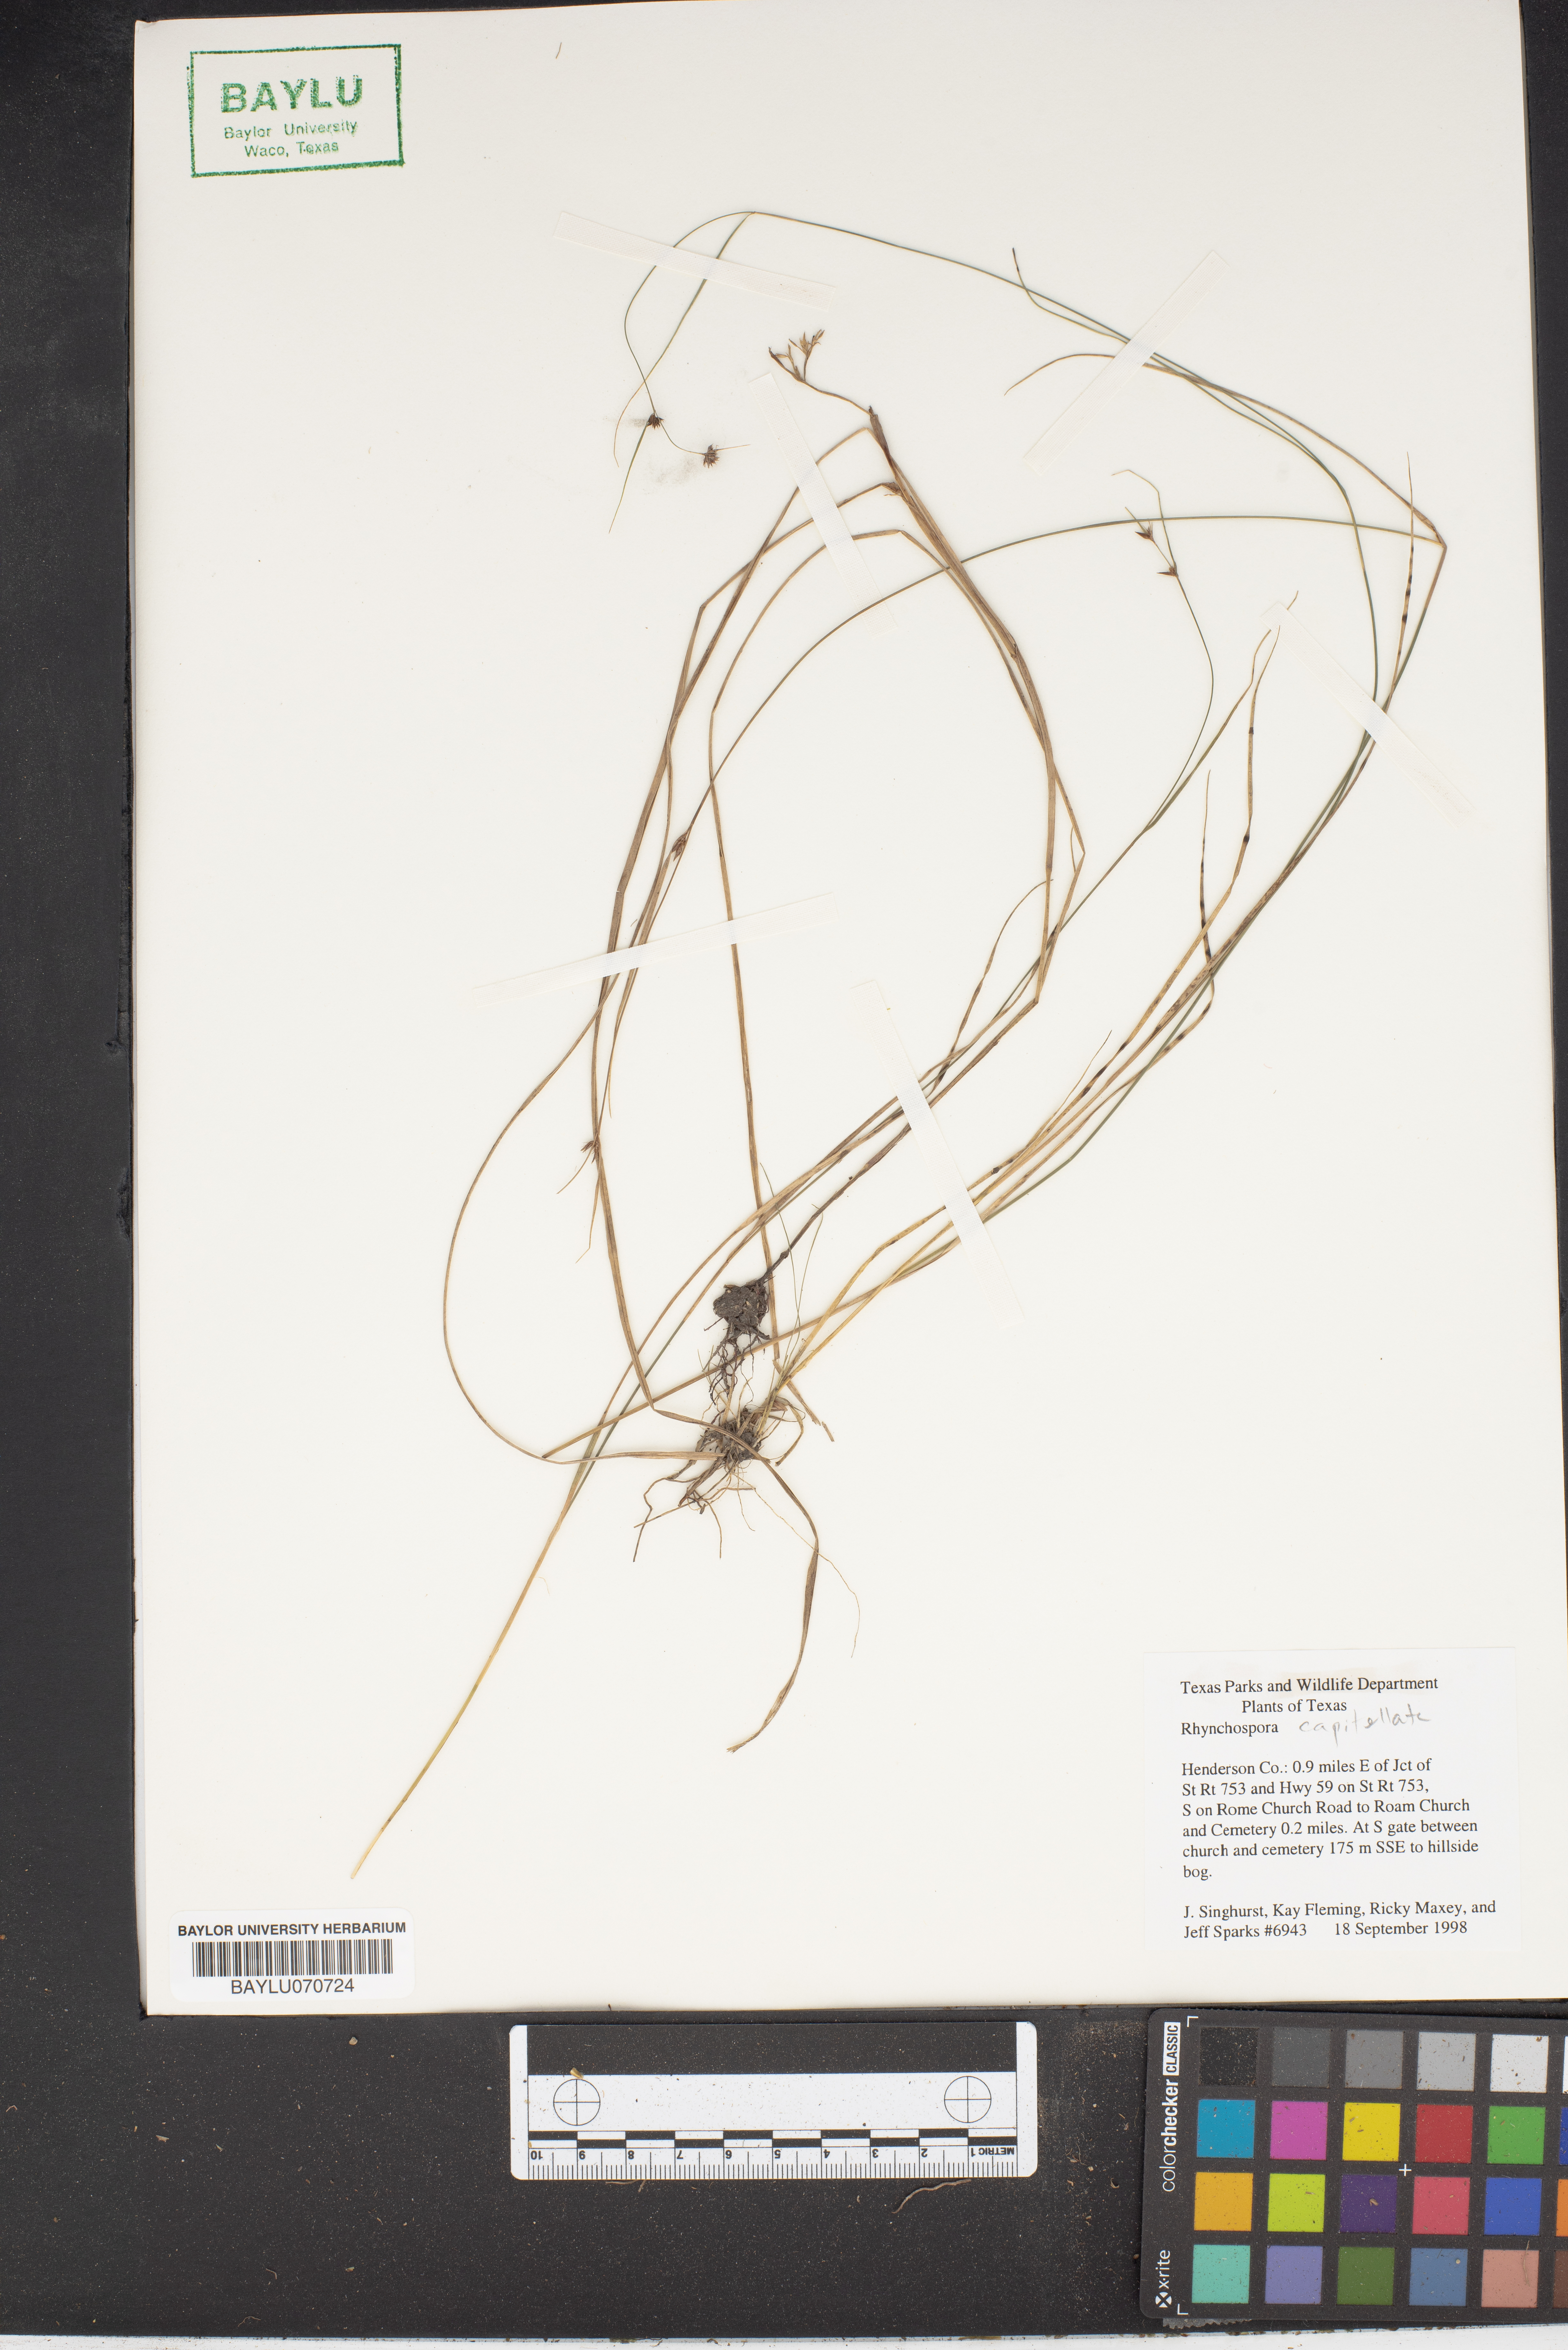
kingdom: Plantae
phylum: Tracheophyta
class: Liliopsida
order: Poales
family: Cyperaceae
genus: Rhynchospora
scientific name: Rhynchospora capitellata
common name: Brownish beaksedge
